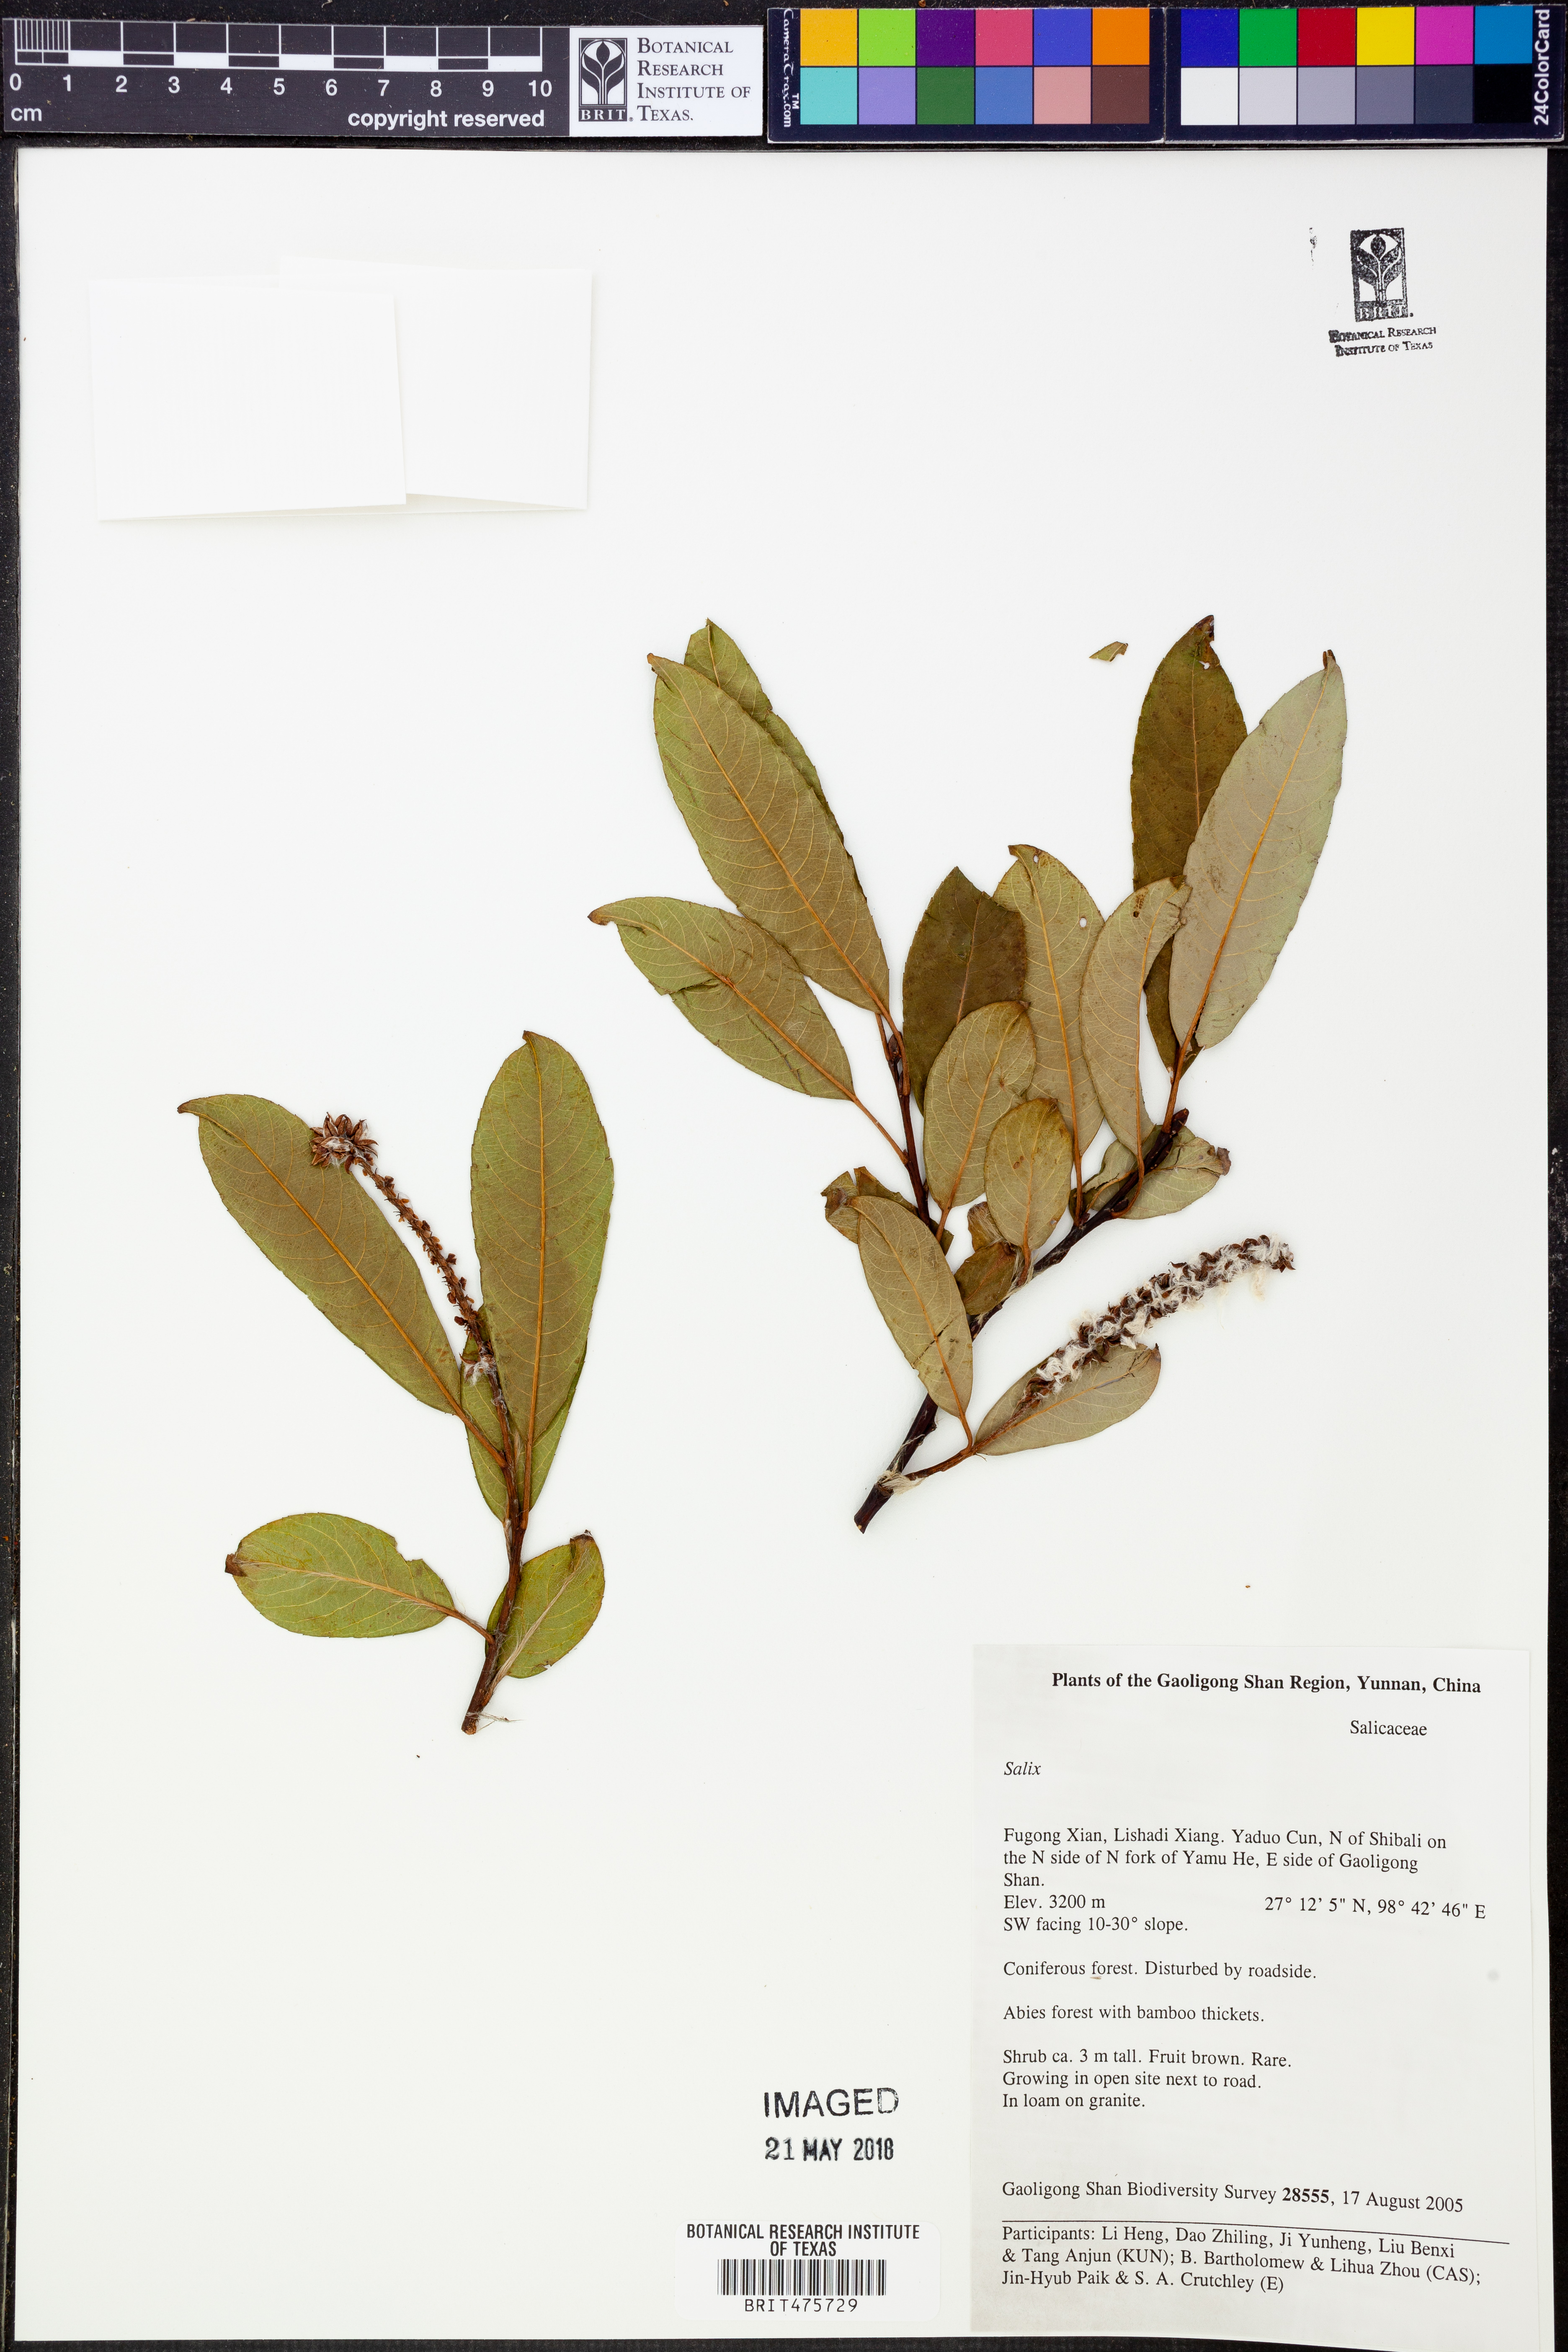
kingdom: Plantae
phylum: Tracheophyta
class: Magnoliopsida
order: Malpighiales
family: Salicaceae
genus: Salix
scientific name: Salix
